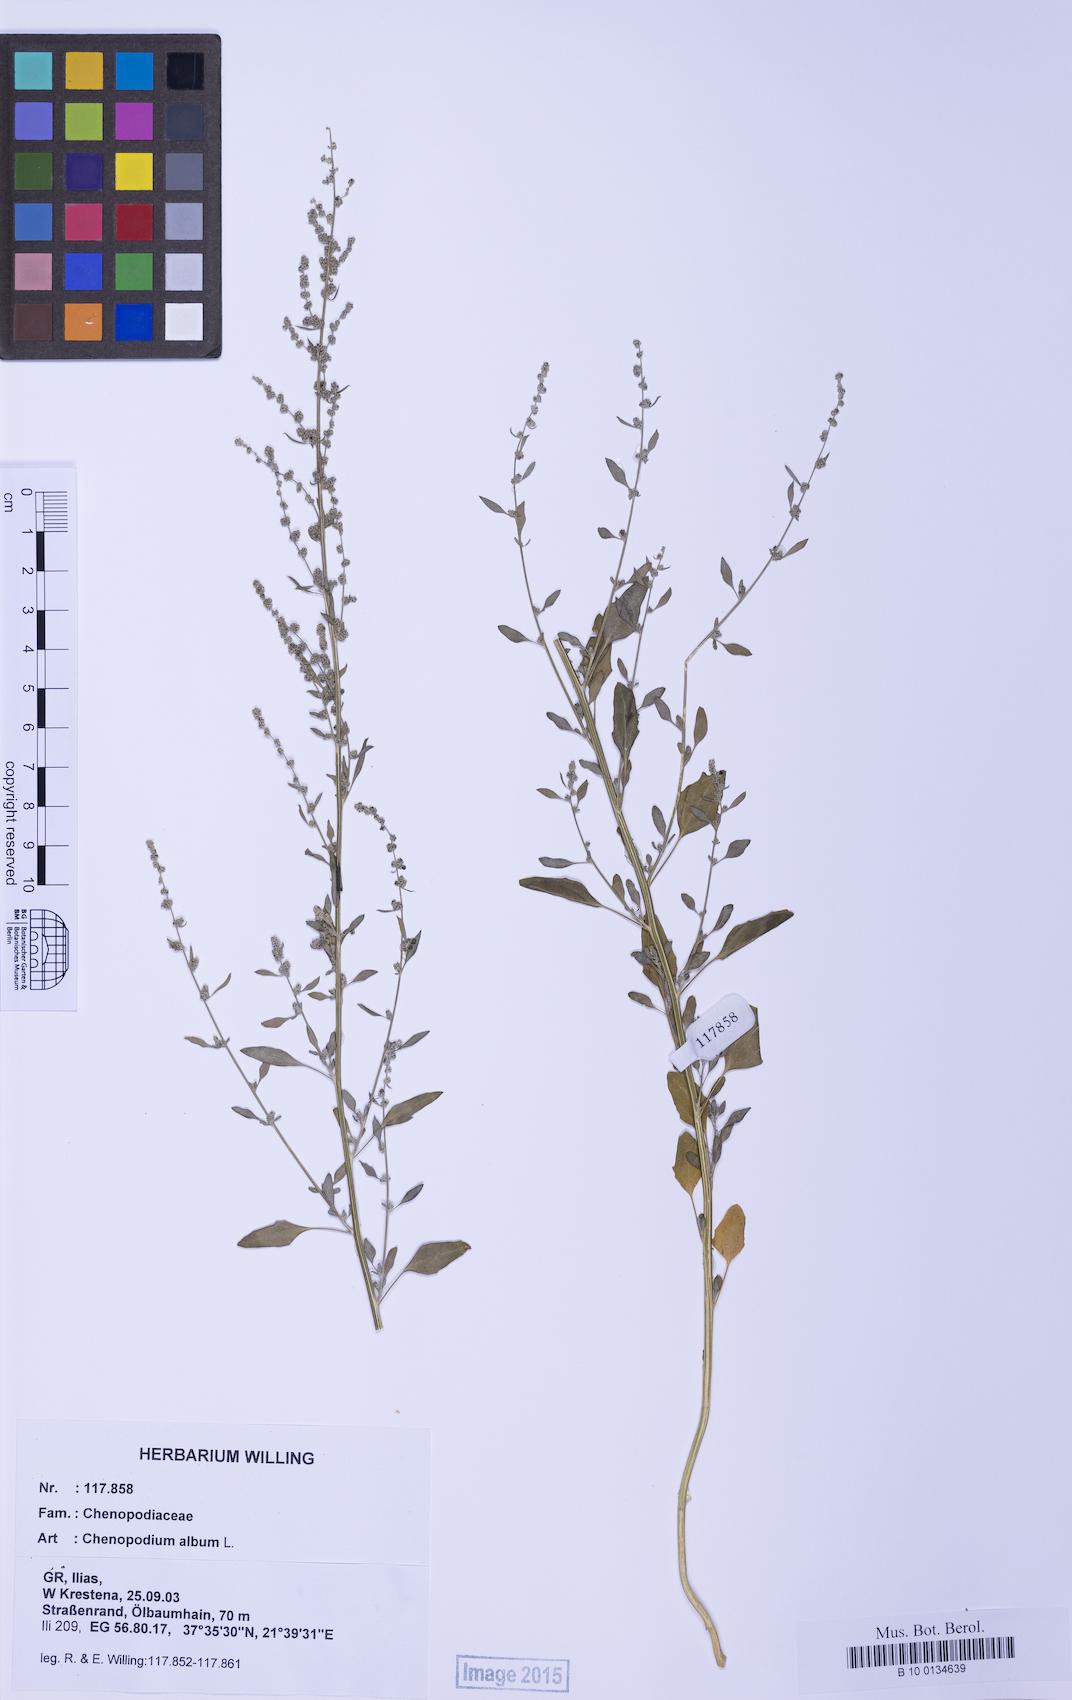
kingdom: Plantae
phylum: Tracheophyta
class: Magnoliopsida
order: Caryophyllales
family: Amaranthaceae
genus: Chenopodium
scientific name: Chenopodium striatiforme
